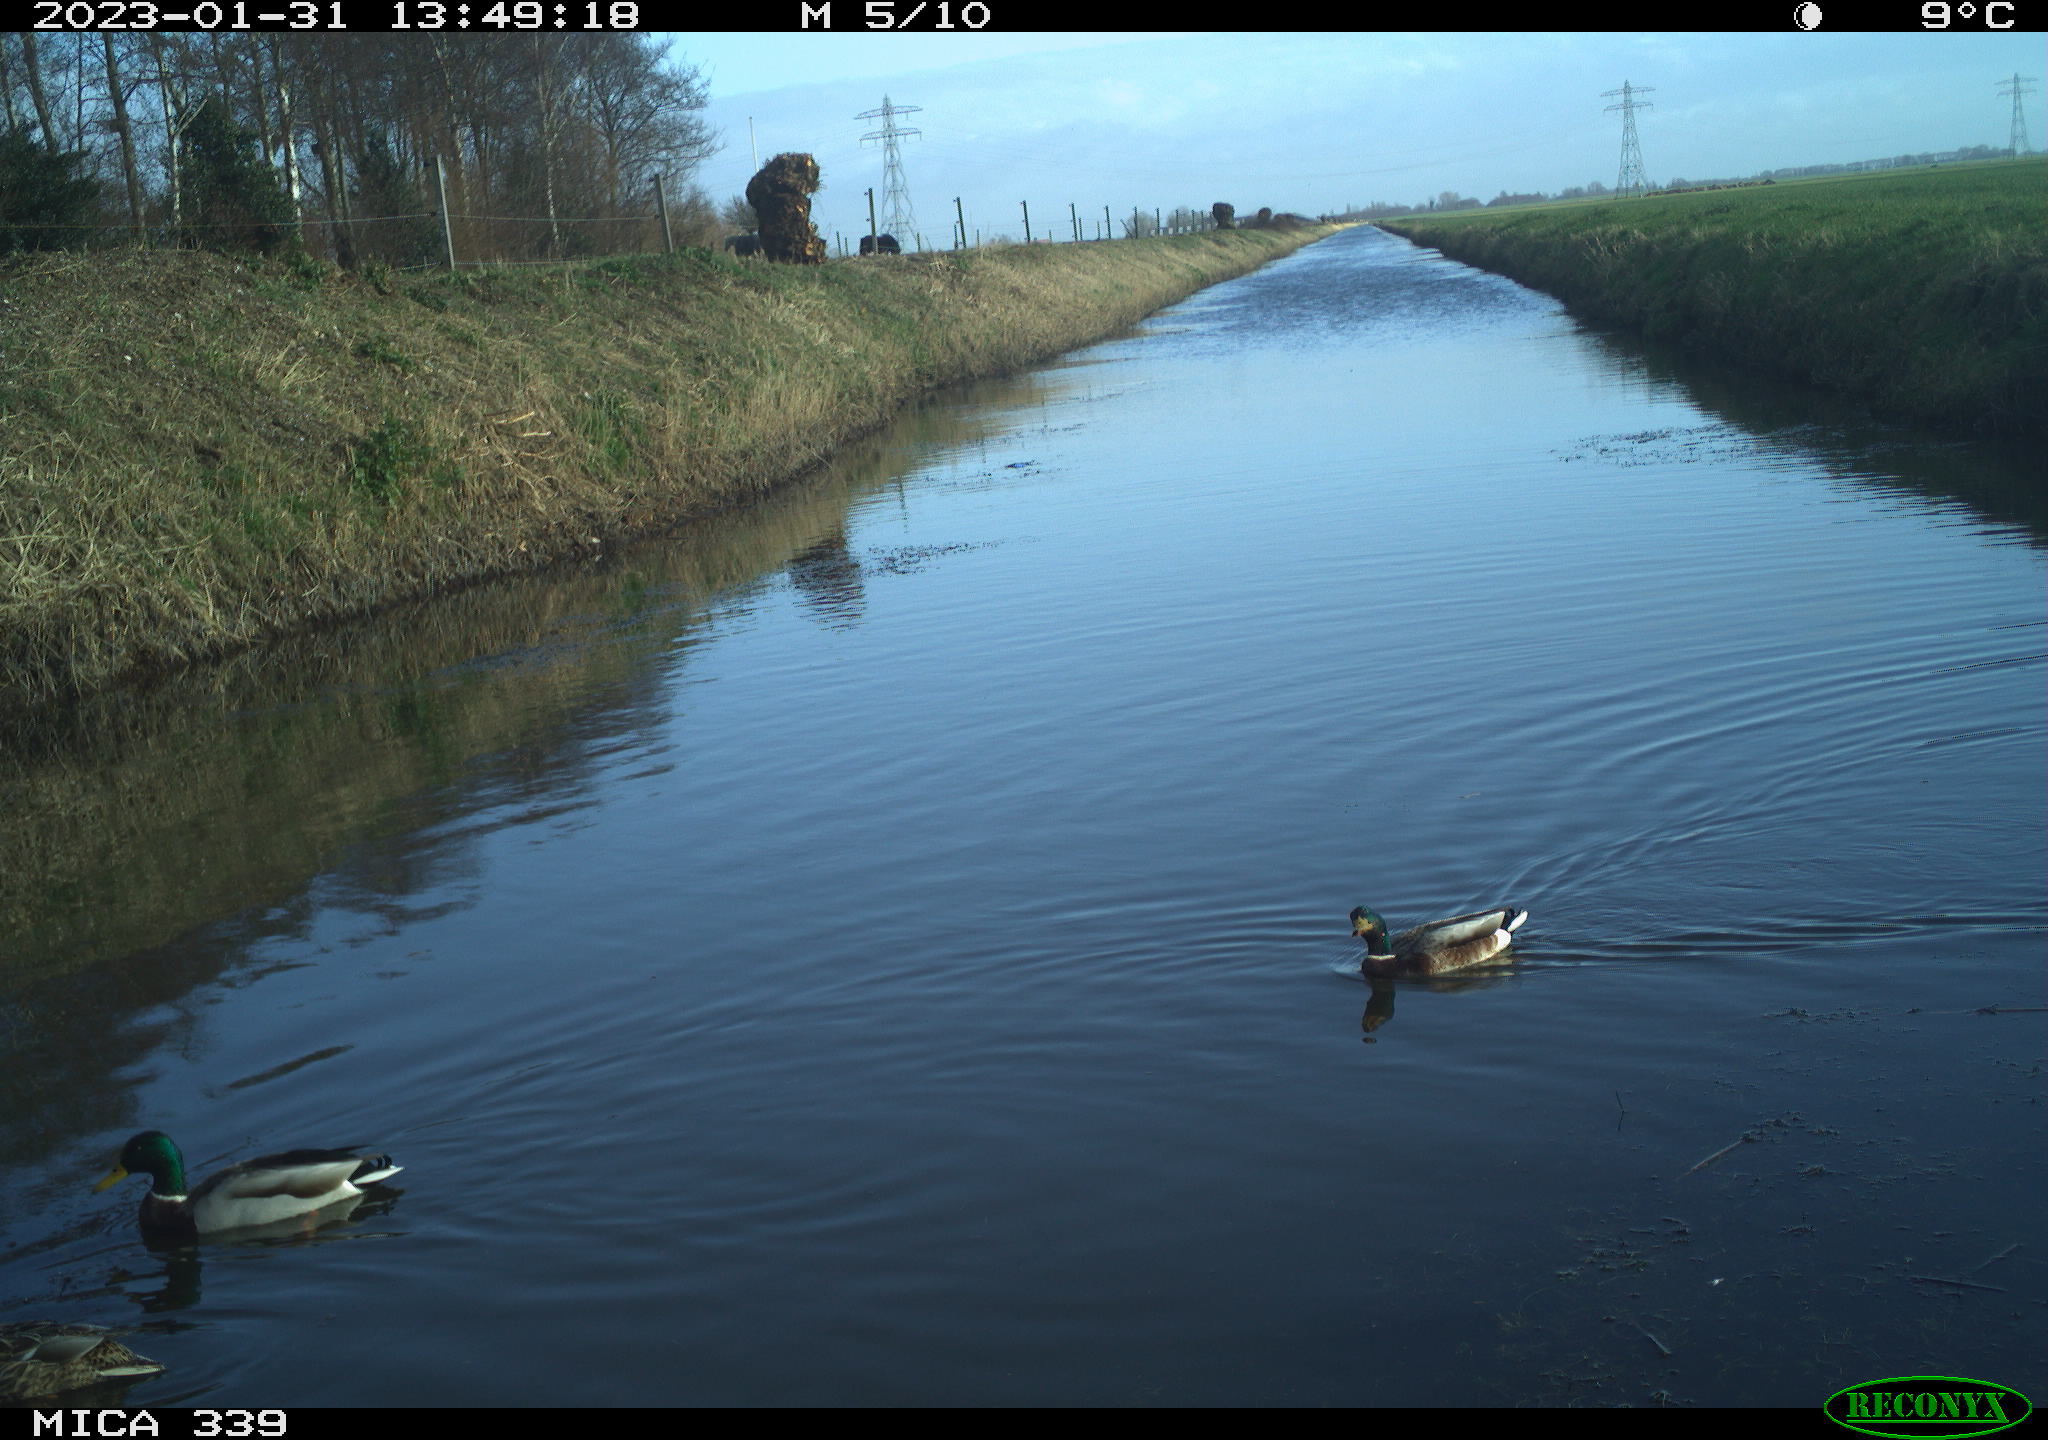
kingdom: Animalia
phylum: Chordata
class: Aves
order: Anseriformes
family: Anatidae
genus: Anas
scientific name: Anas
